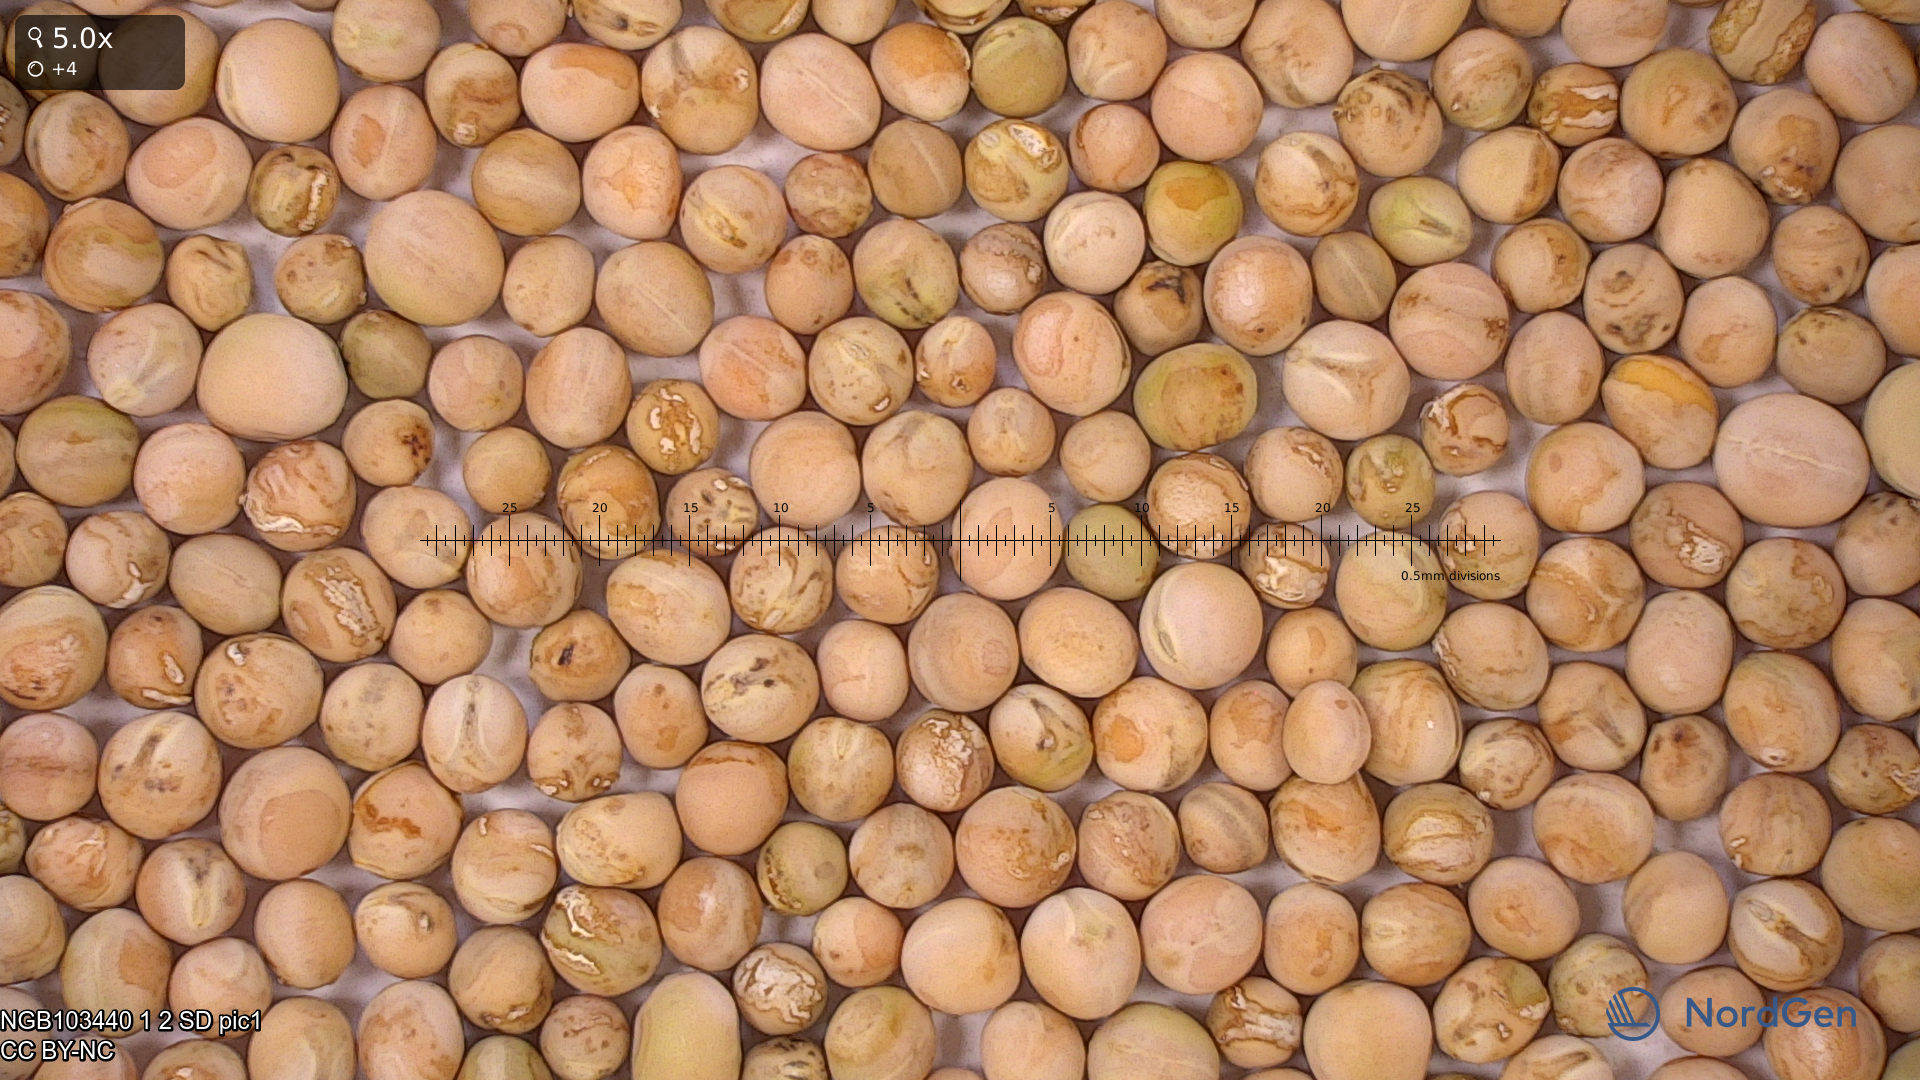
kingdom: Plantae
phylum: Tracheophyta
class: Magnoliopsida
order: Fabales
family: Fabaceae
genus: Lathyrus
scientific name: Lathyrus oleraceus
